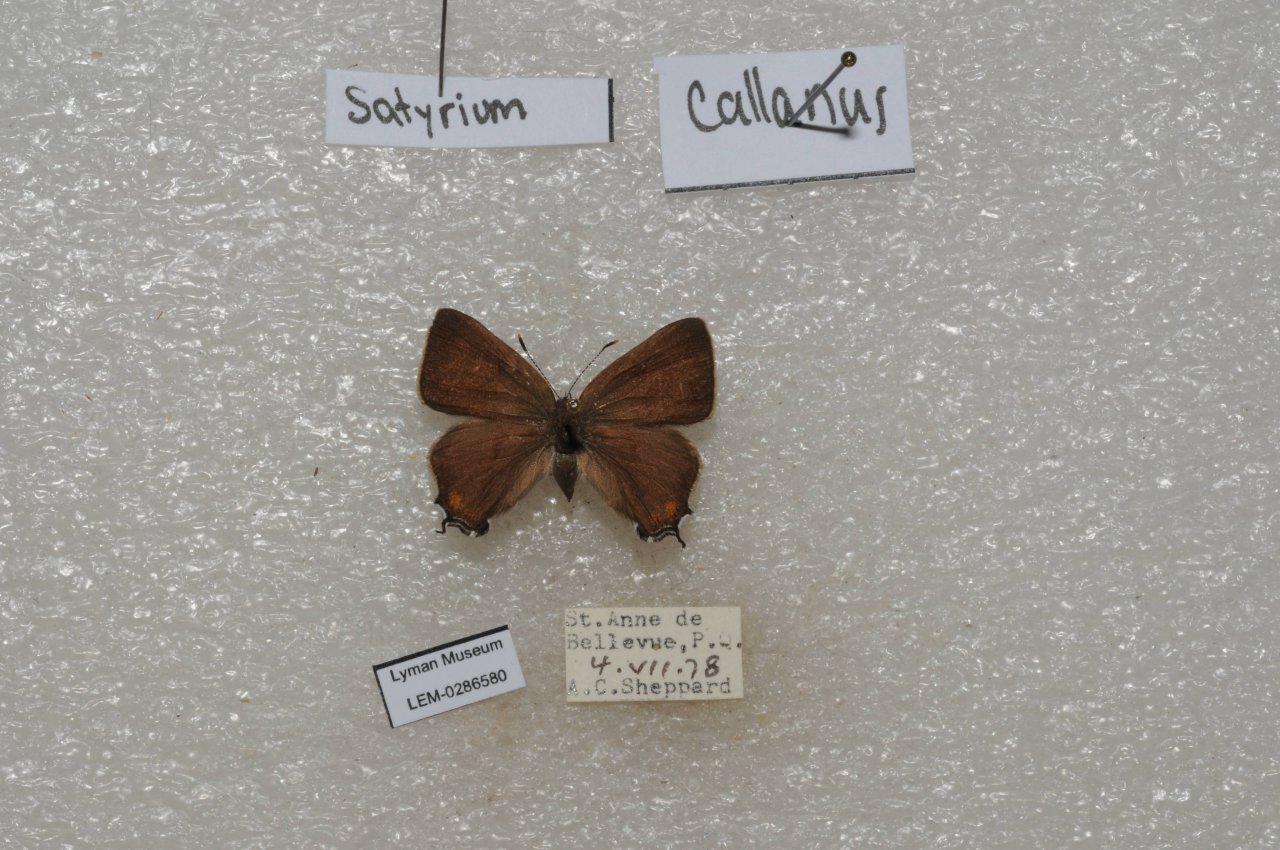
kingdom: Animalia
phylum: Arthropoda
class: Insecta
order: Lepidoptera
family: Lycaenidae
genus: Satyrium
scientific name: Satyrium calanus
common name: Banded Hairstreak
